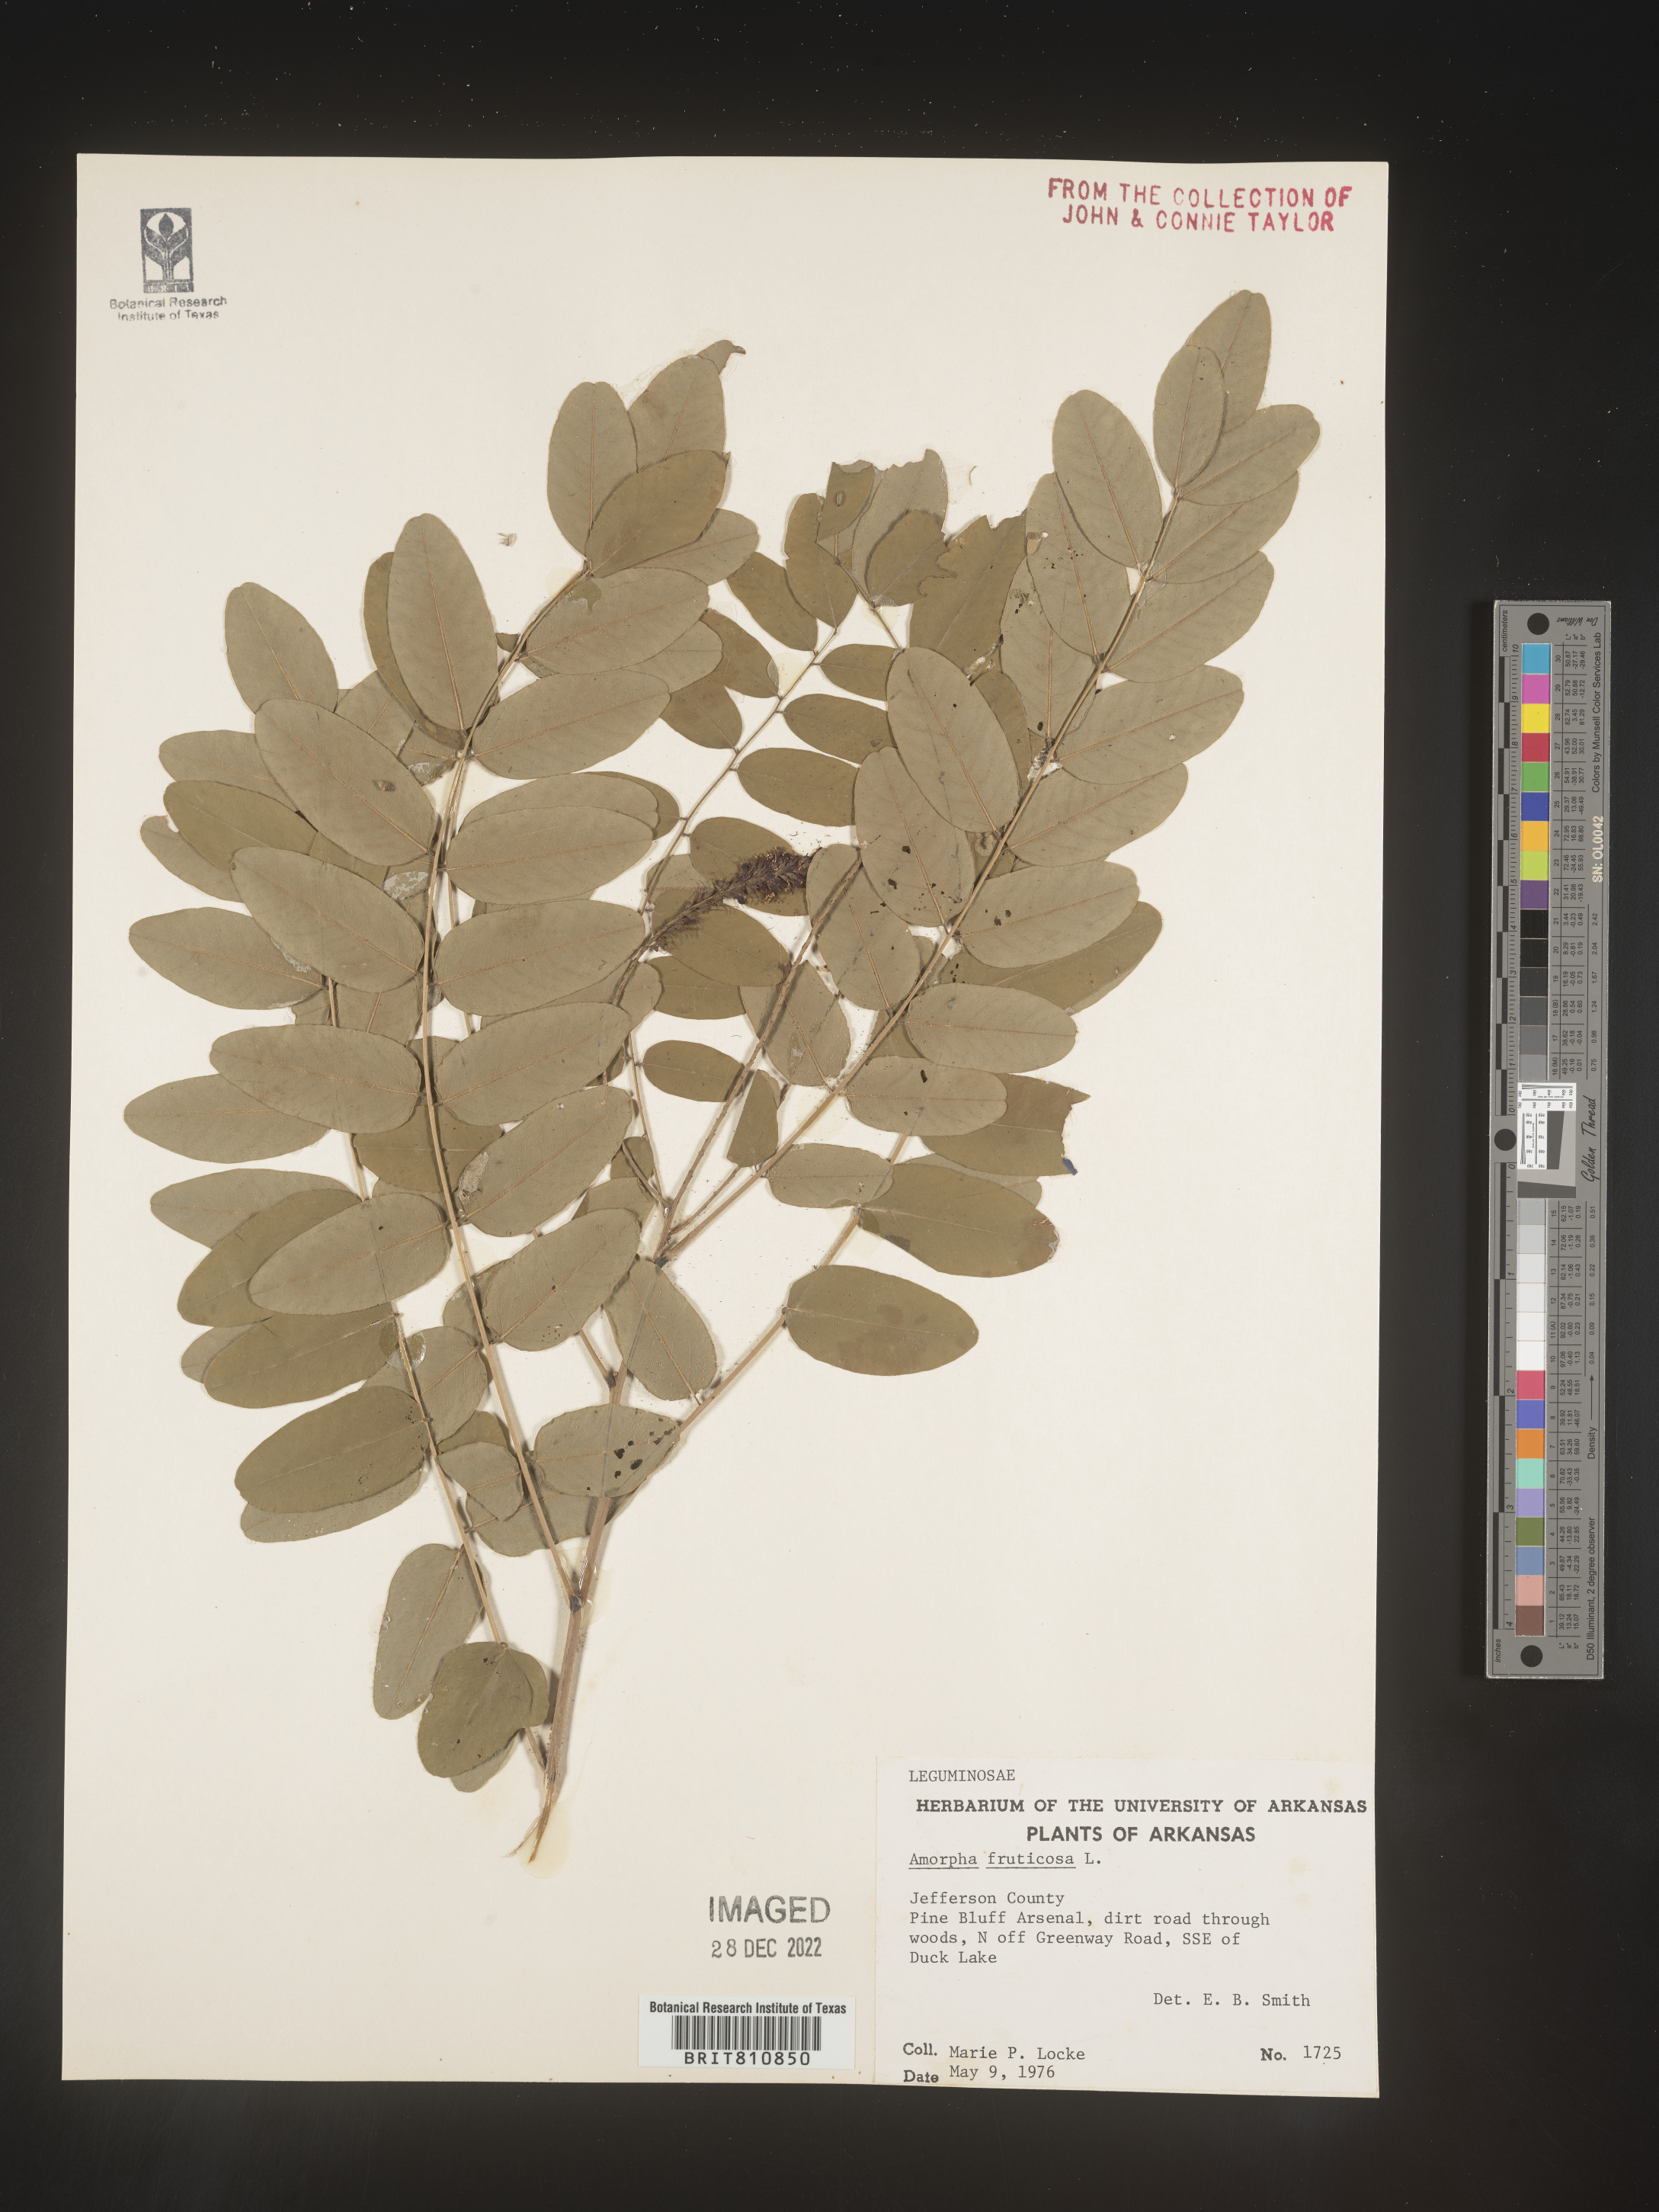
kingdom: Plantae
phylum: Tracheophyta
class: Magnoliopsida
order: Fabales
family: Fabaceae
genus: Amorpha
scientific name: Amorpha fruticosa
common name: False indigo
